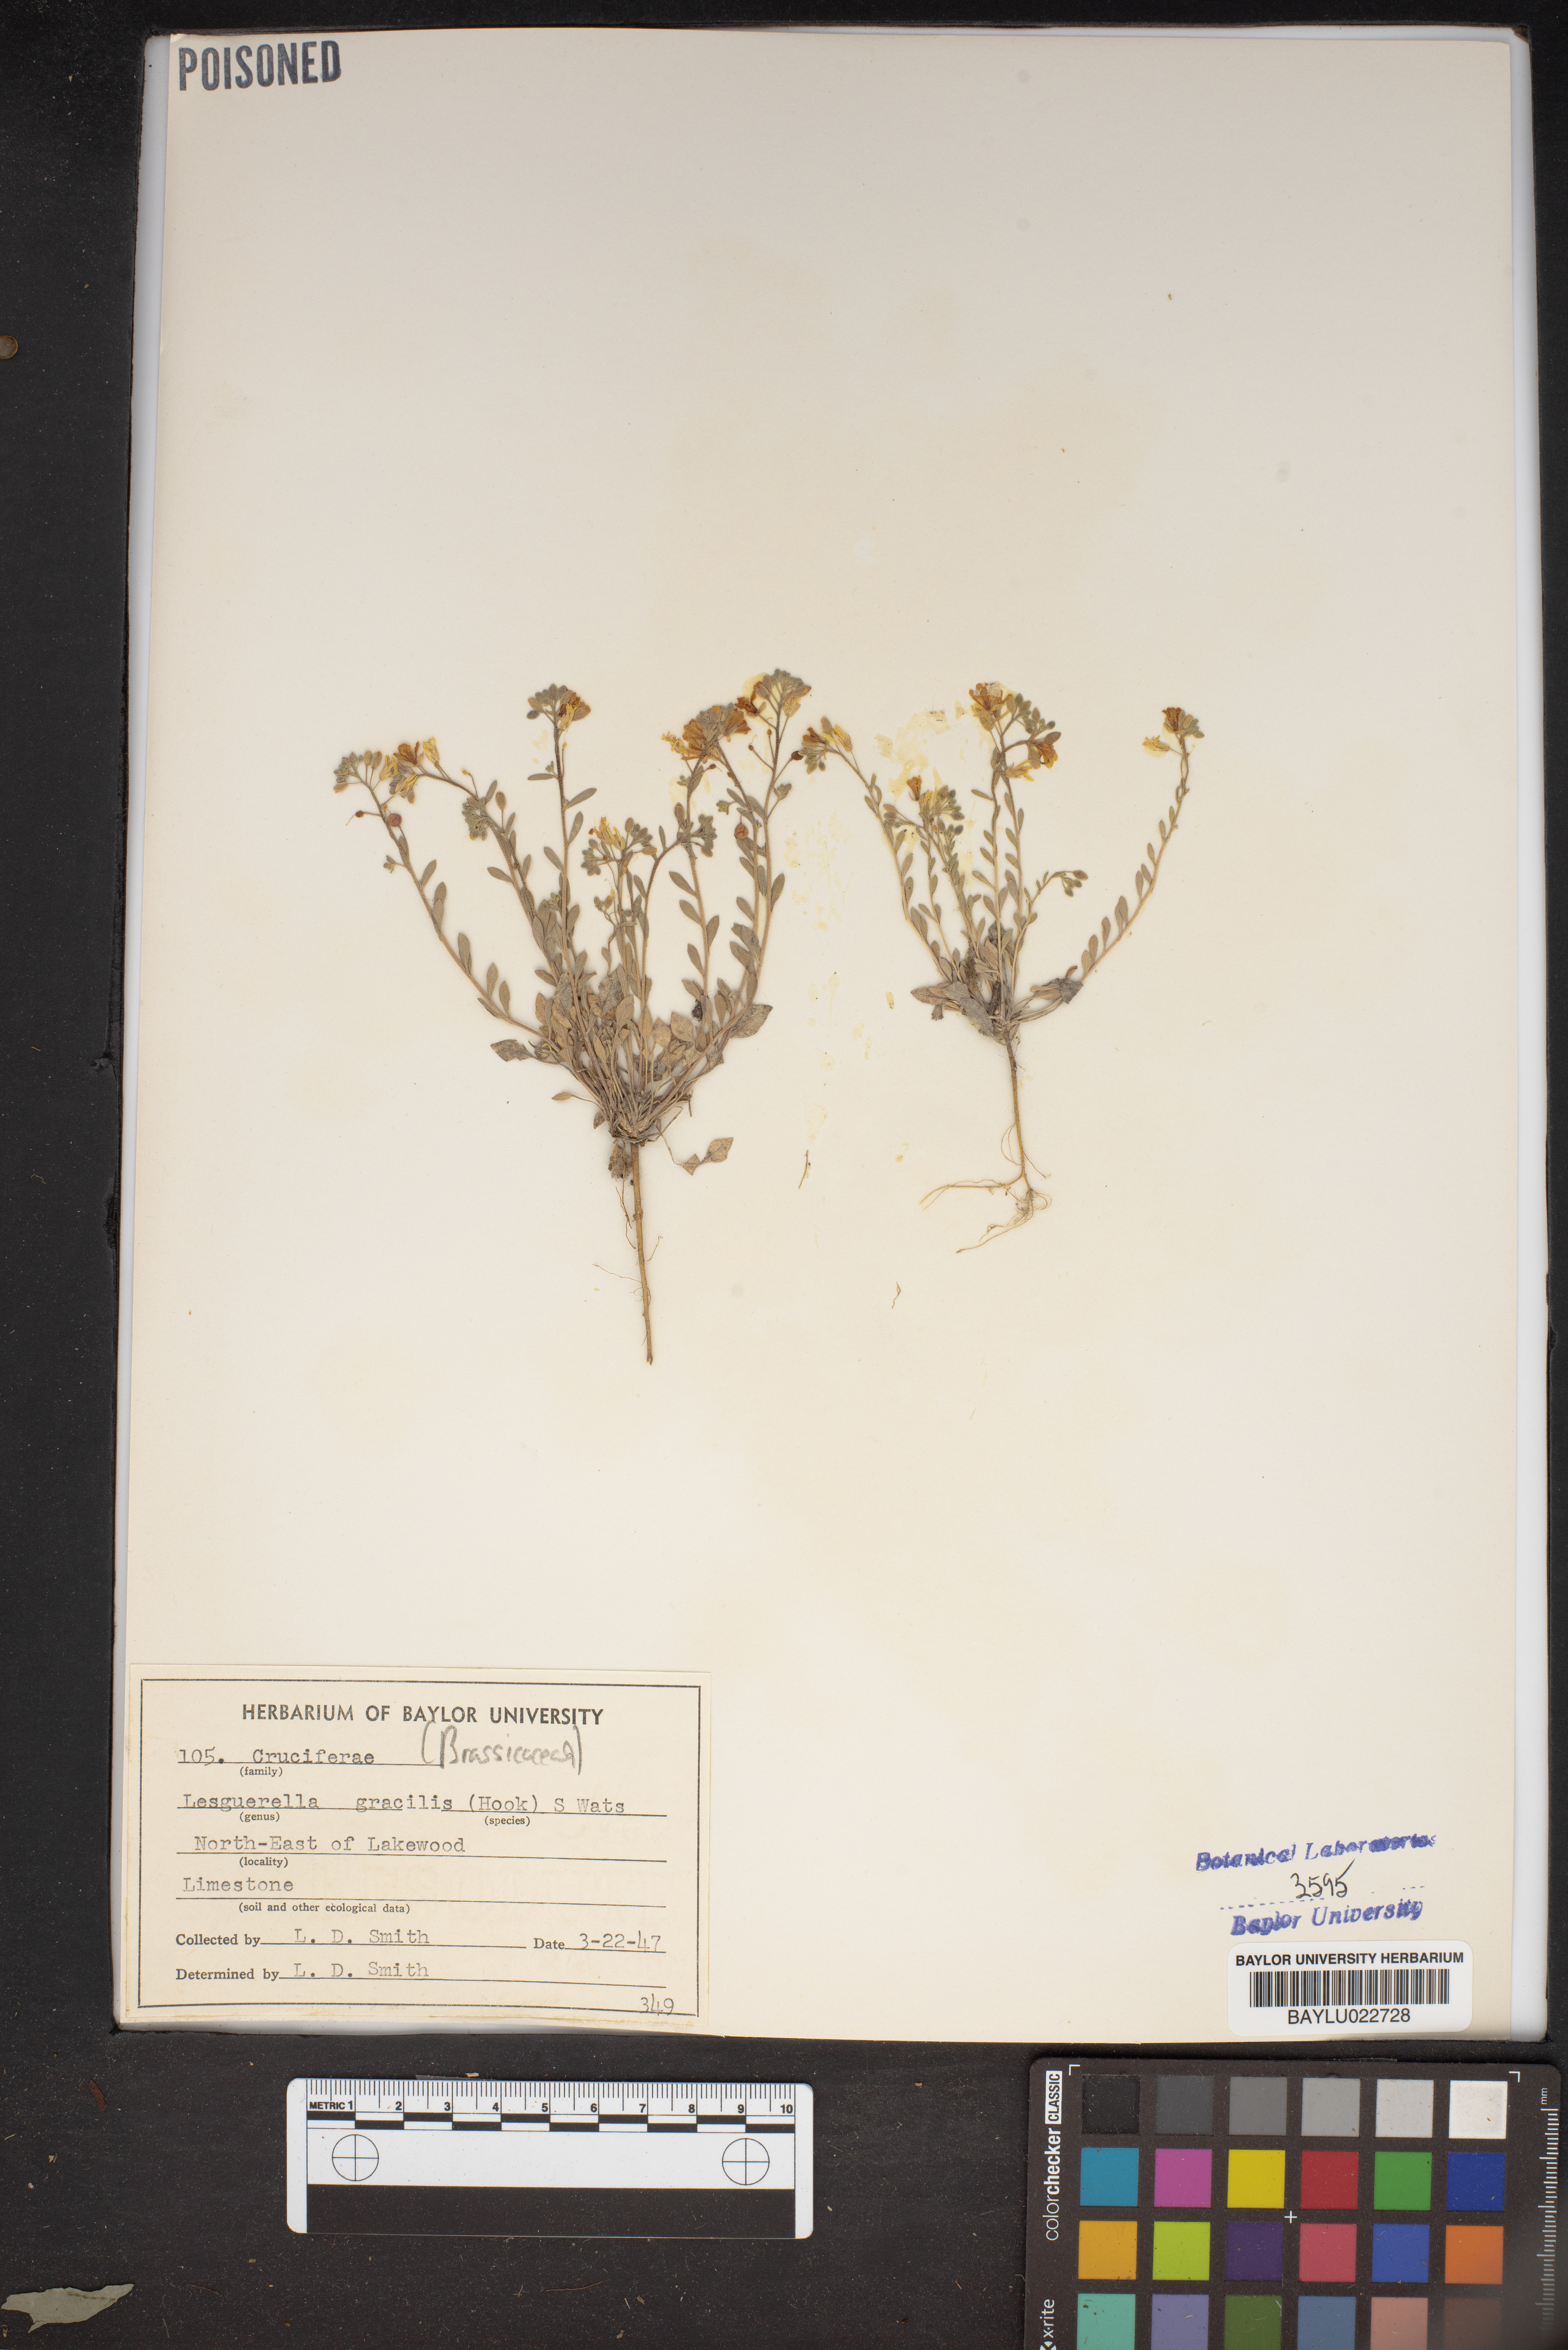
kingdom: Plantae
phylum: Tracheophyta
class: Magnoliopsida
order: Brassicales
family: Brassicaceae
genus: Physaria
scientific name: Physaria gracilis
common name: Spreading bladderpod
